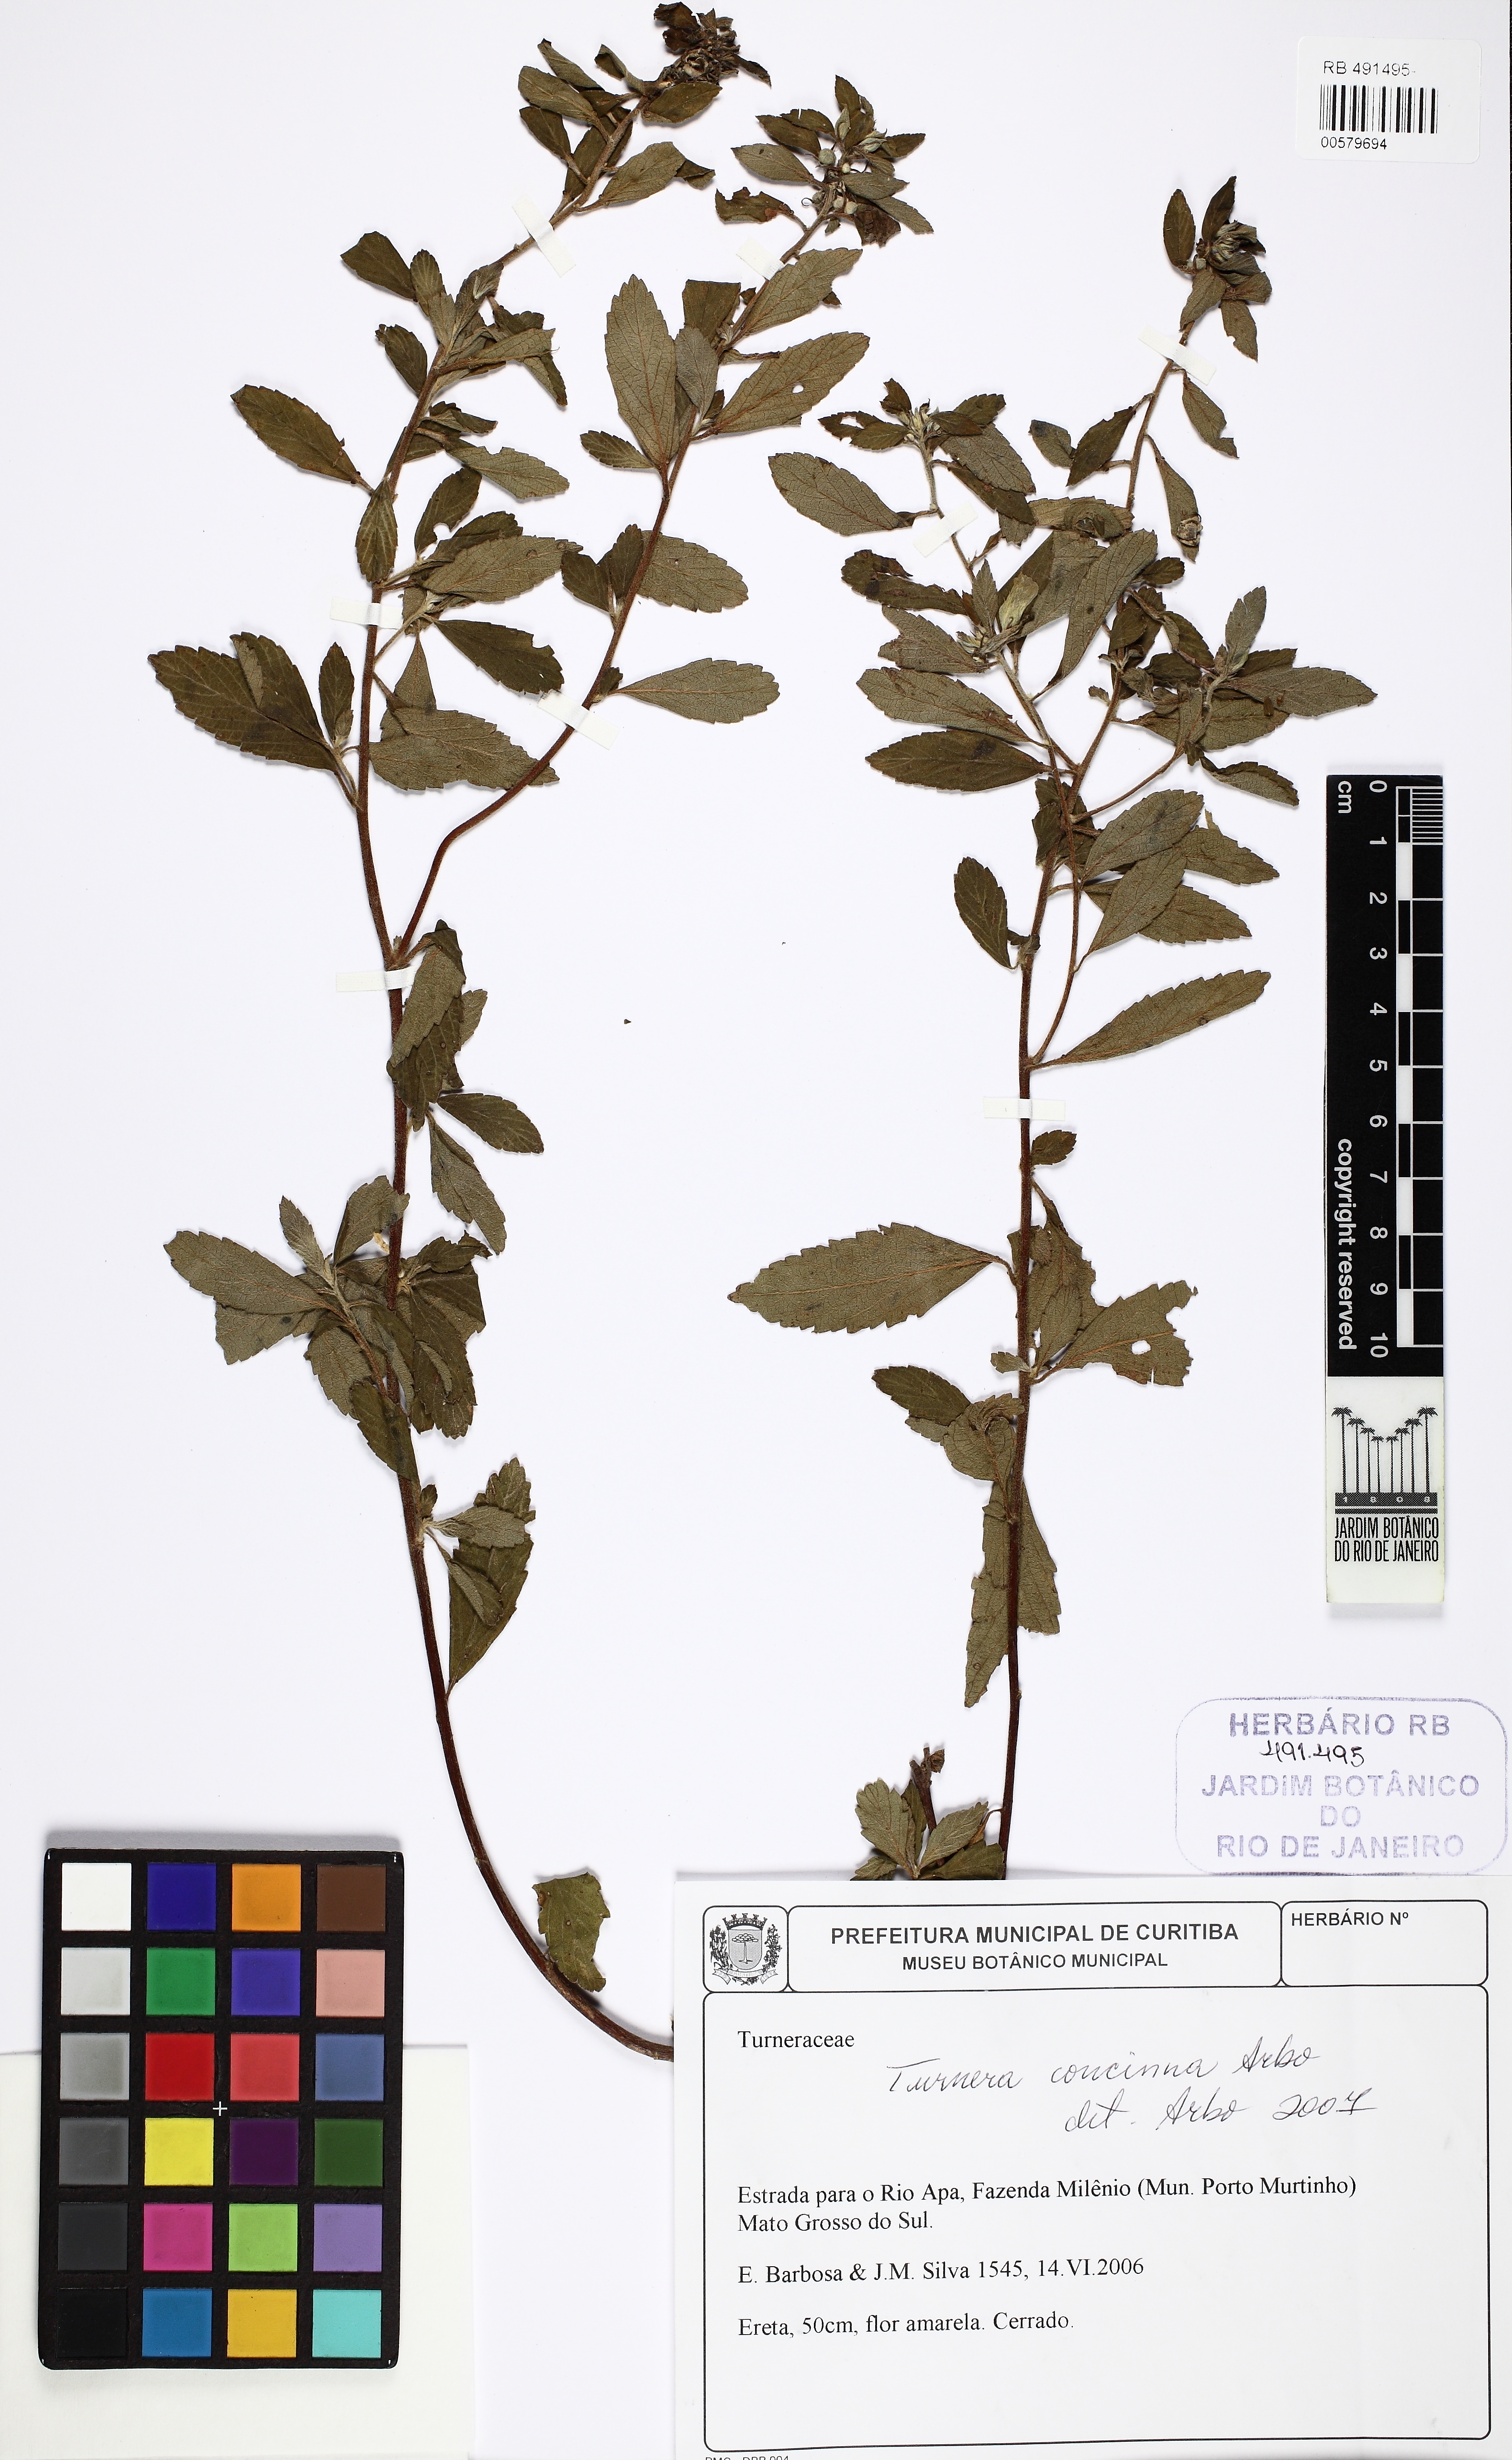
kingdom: Plantae
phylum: Tracheophyta
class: Magnoliopsida
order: Malpighiales
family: Turneraceae
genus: Turnera
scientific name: Turnera concinna
